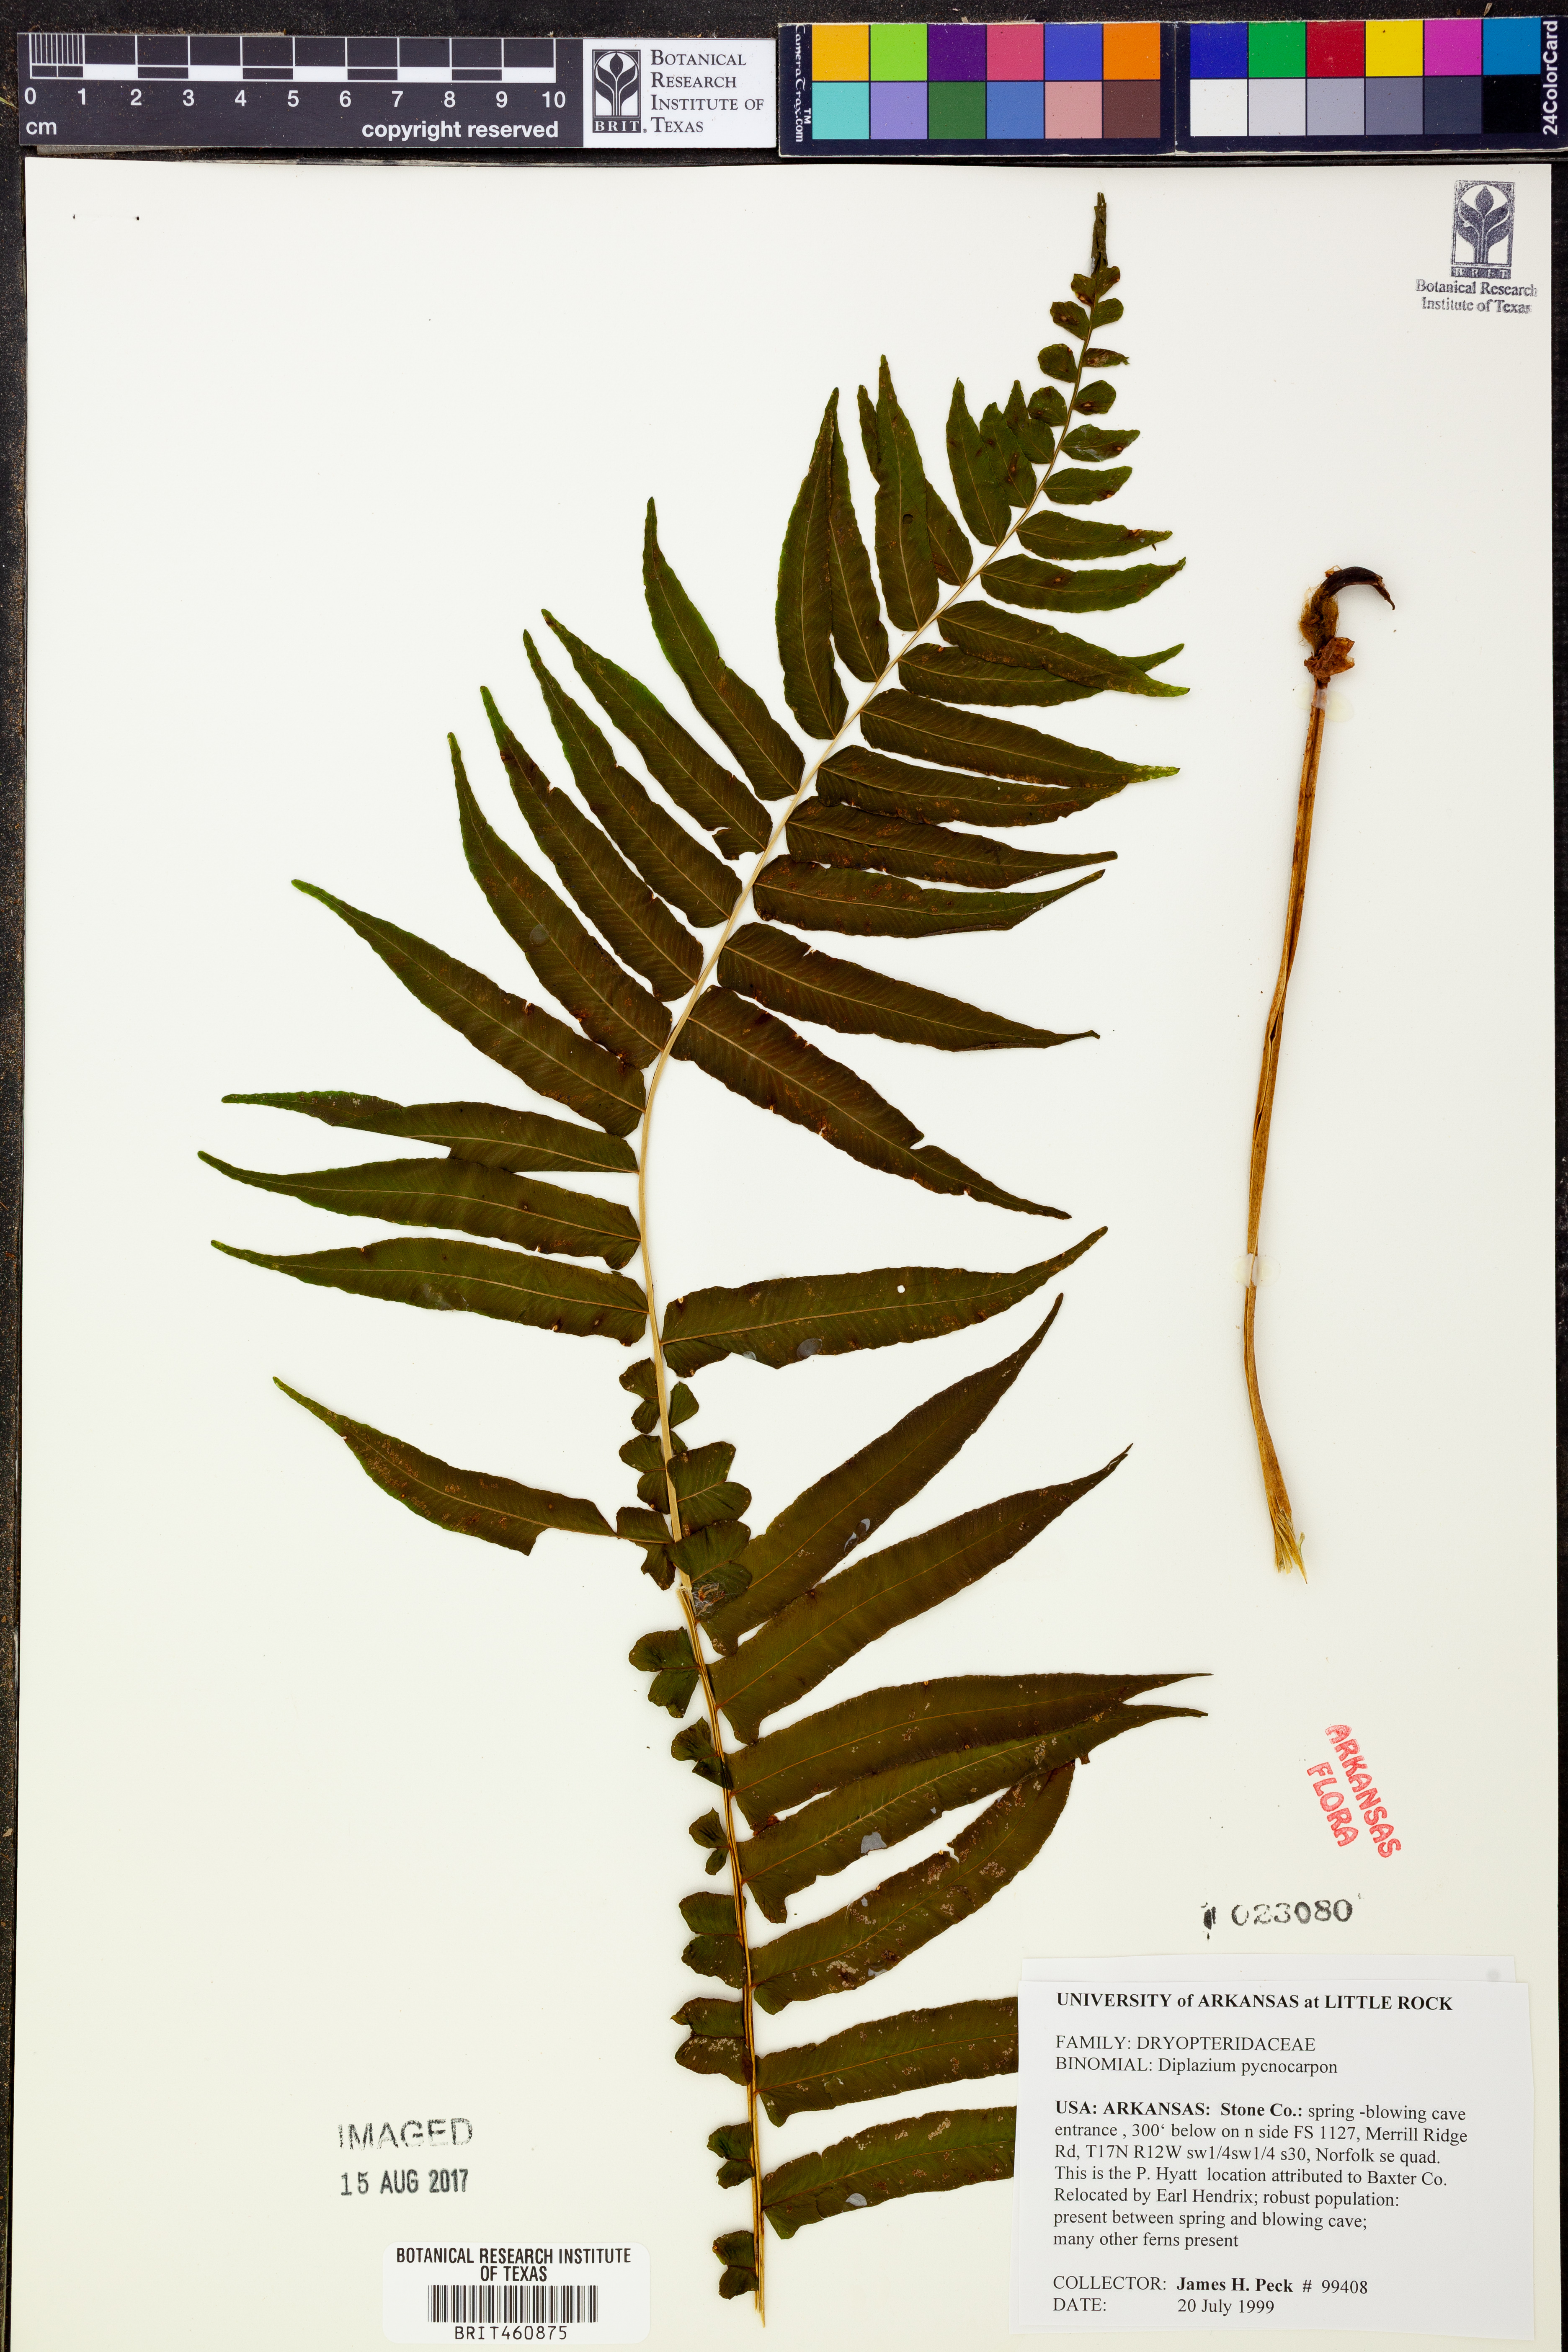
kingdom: Plantae
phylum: Tracheophyta
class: Polypodiopsida
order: Polypodiales
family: Diplaziopsidaceae
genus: Homalosorus
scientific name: Homalosorus pycnocarpos
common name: Glade fern
